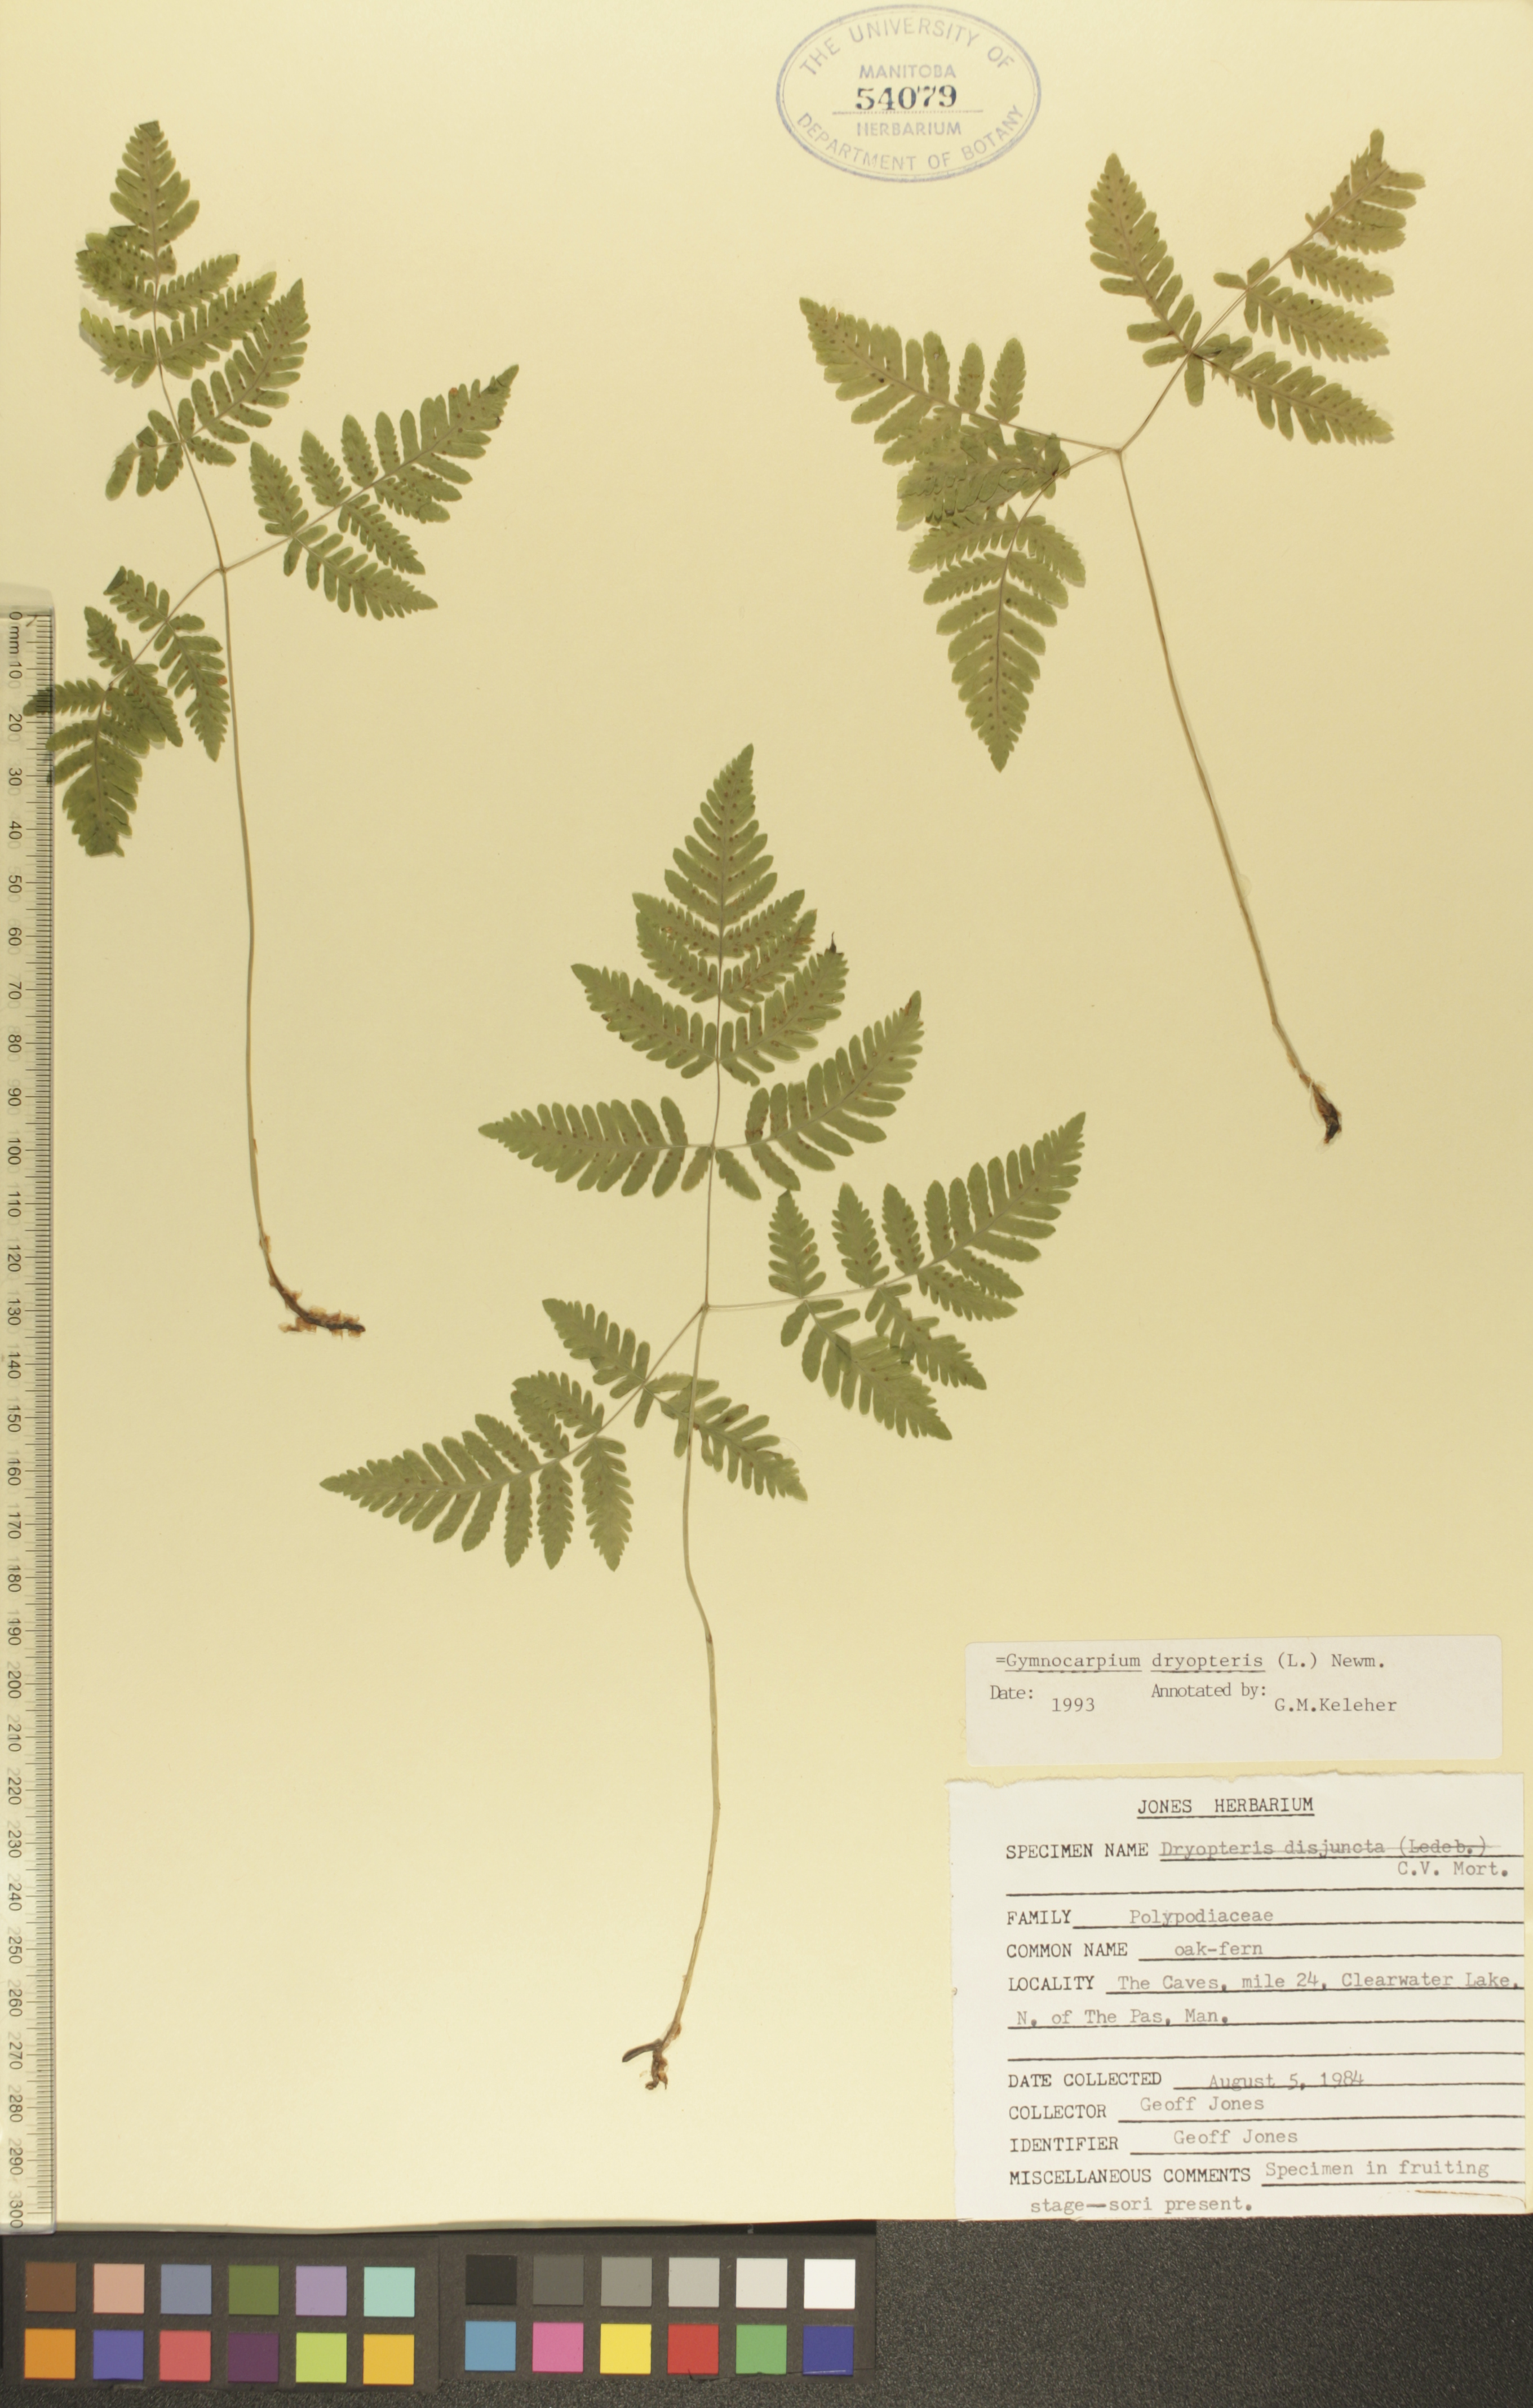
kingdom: Plantae
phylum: Tracheophyta
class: Polypodiopsida
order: Polypodiales
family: Cystopteridaceae
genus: Gymnocarpium
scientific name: Gymnocarpium dryopteris
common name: Oak fern
